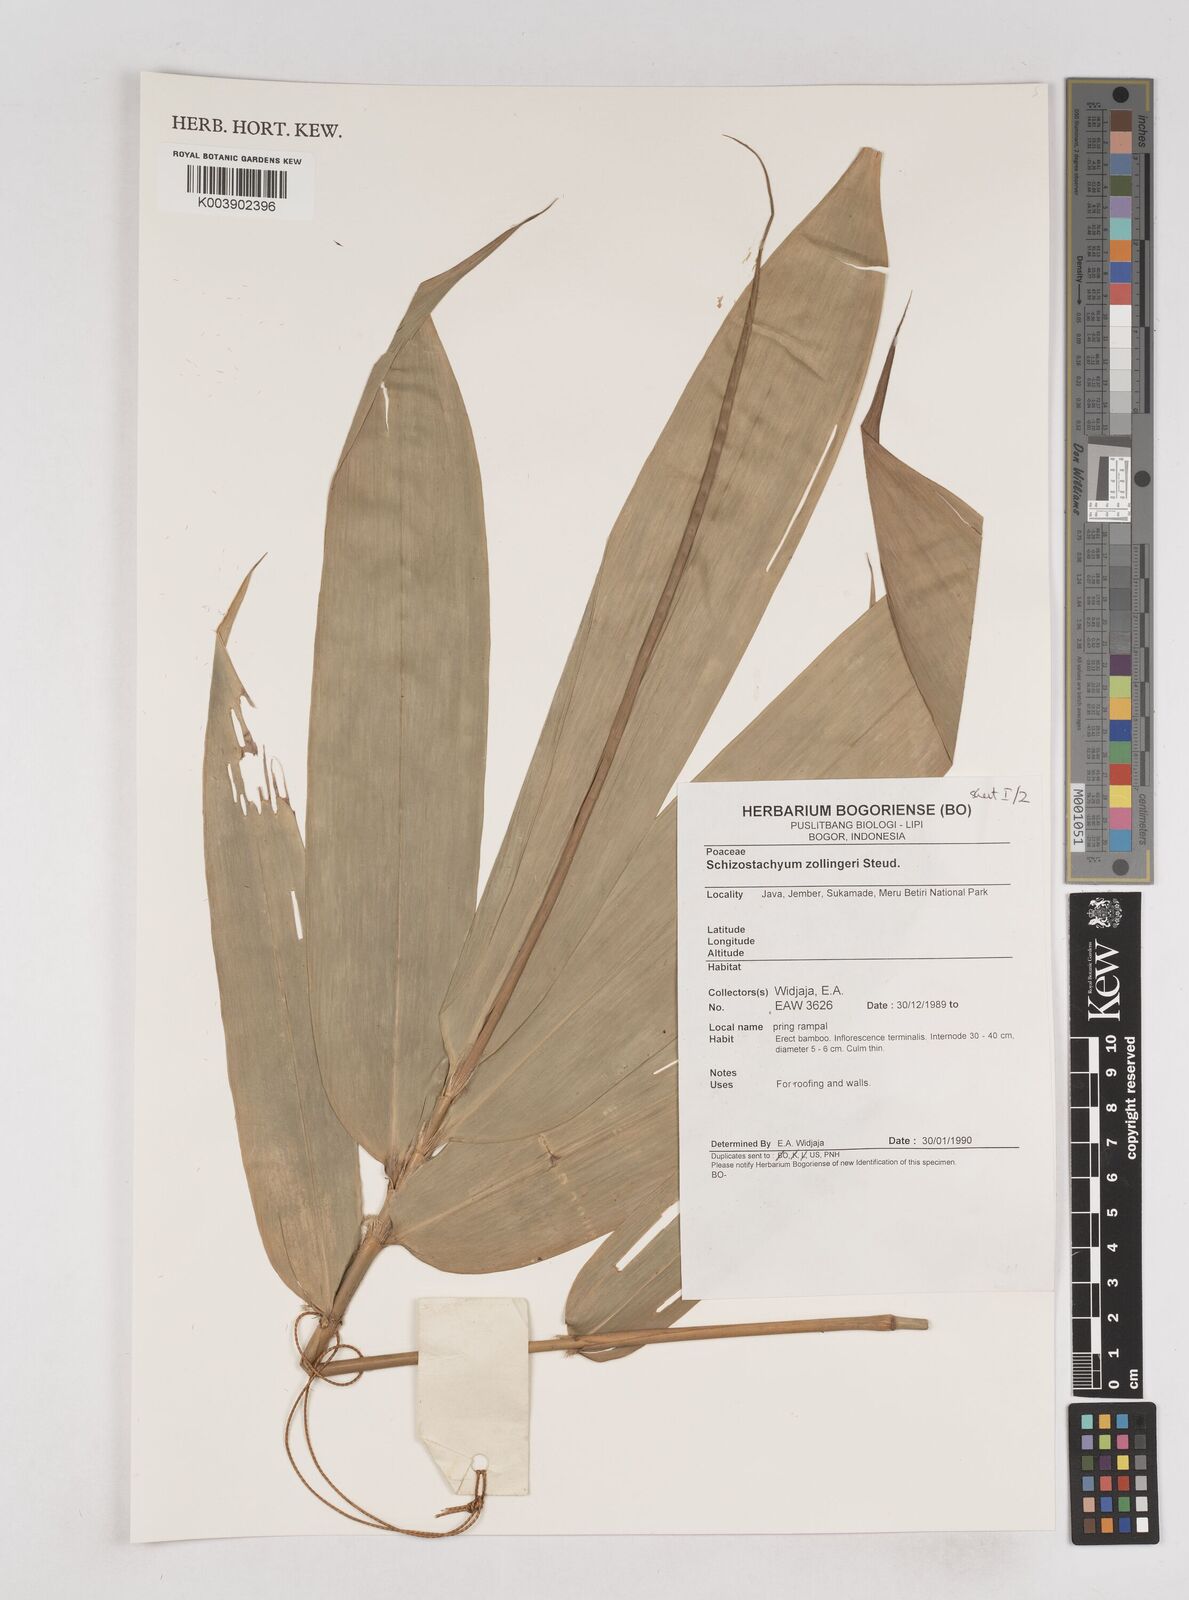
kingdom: Plantae
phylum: Tracheophyta
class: Liliopsida
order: Poales
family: Poaceae
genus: Schizostachyum
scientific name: Schizostachyum zollingeri
